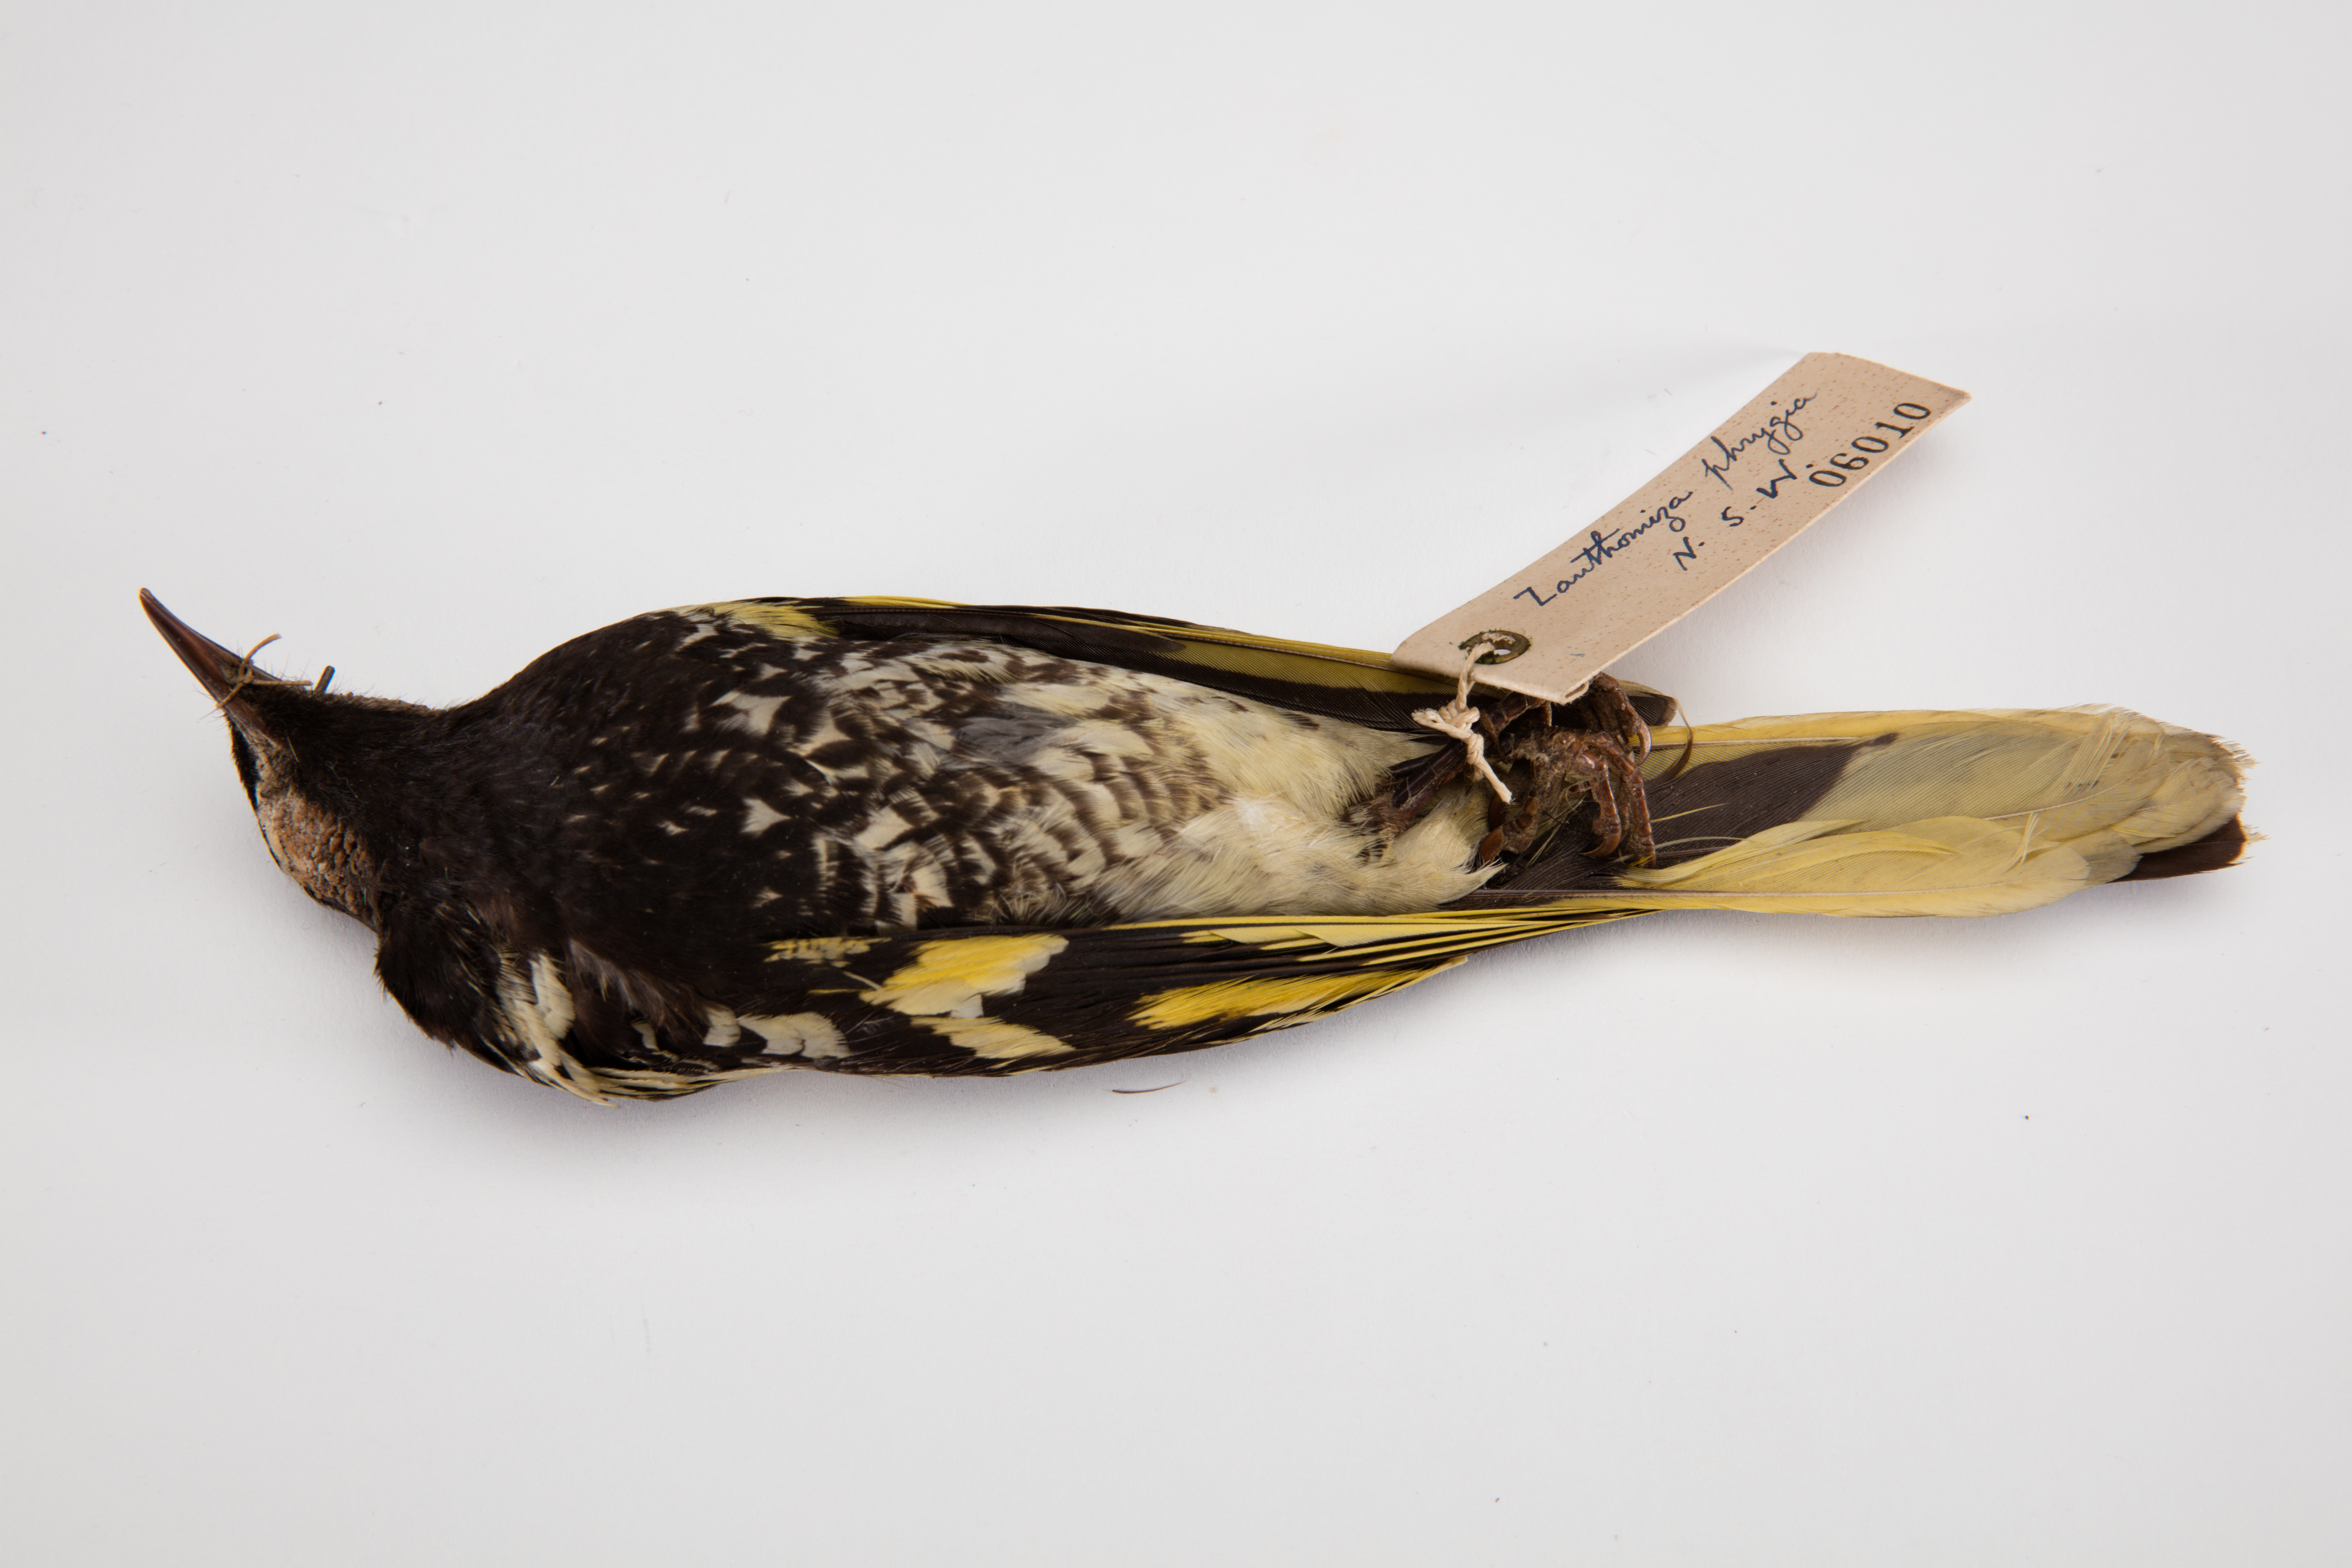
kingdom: Animalia
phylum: Chordata
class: Aves
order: Passeriformes
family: Meliphagidae
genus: Anthochaera
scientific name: Anthochaera phrygia
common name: Regent honeyeater
